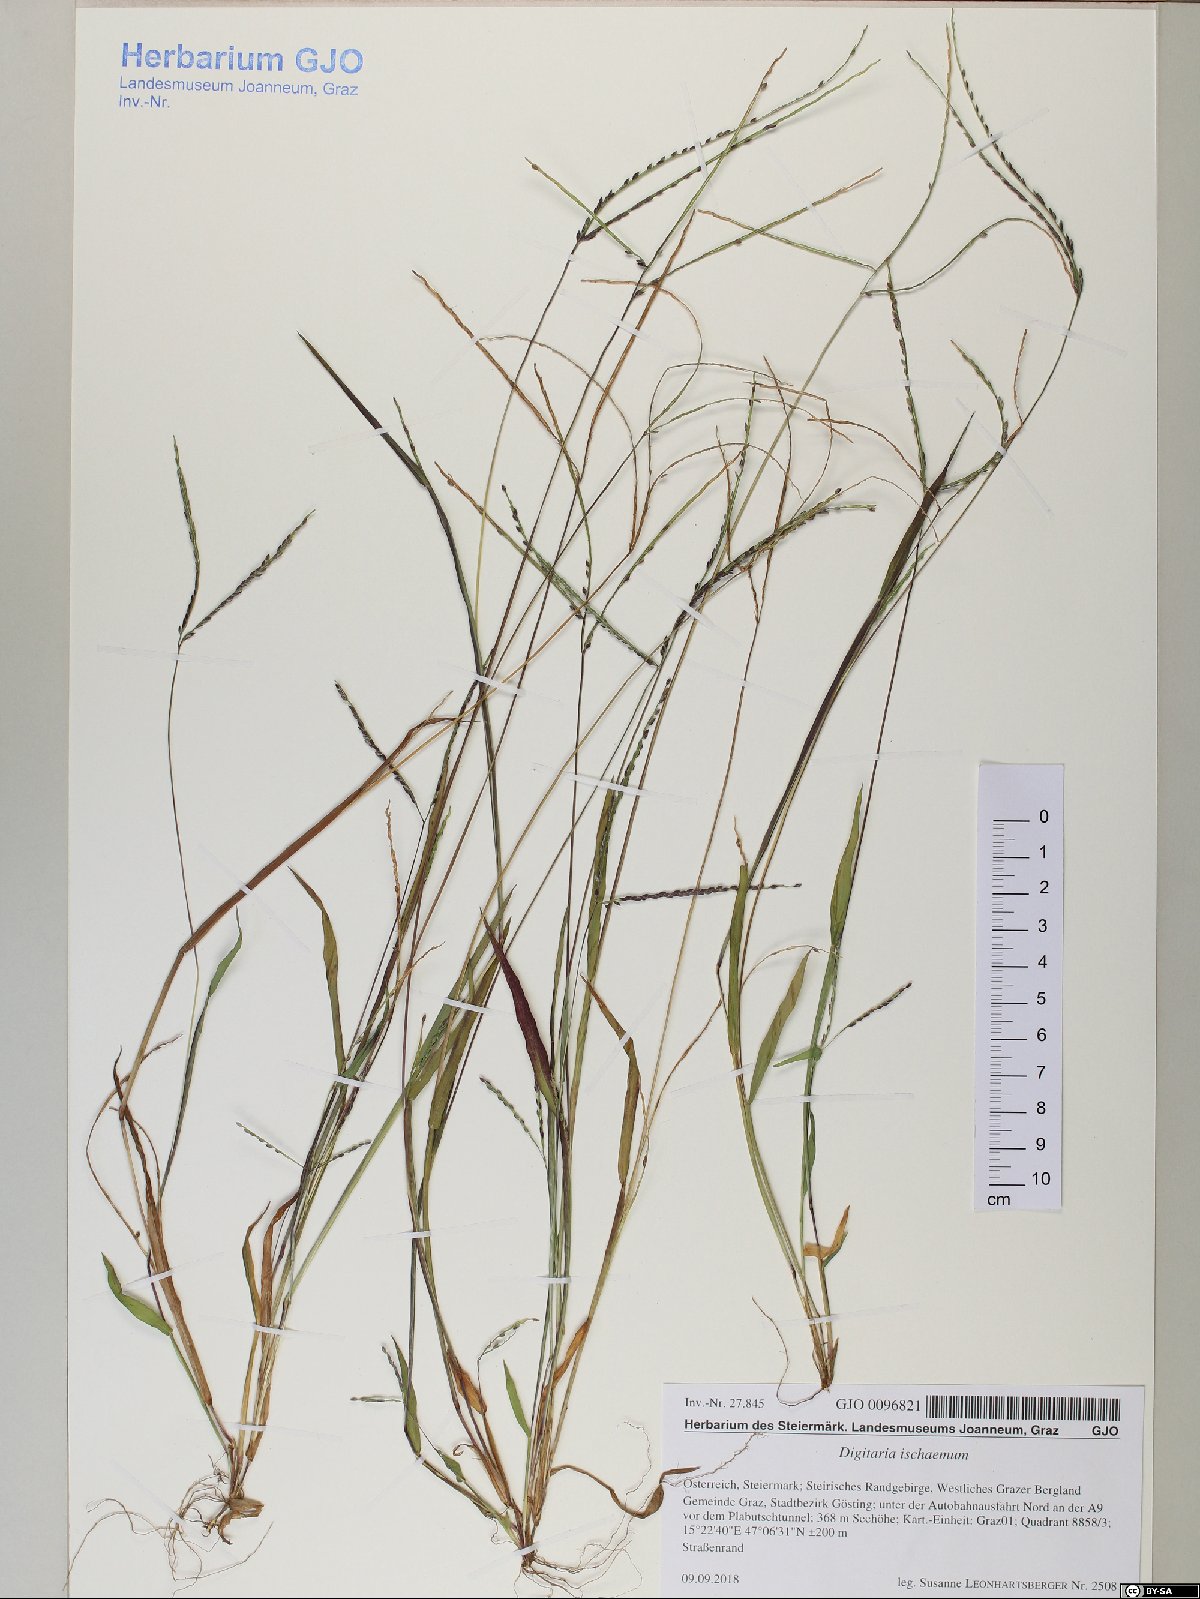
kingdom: Plantae
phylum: Tracheophyta
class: Liliopsida
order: Poales
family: Poaceae
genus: Digitaria
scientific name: Digitaria ischaemum
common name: Smooth crabgrass
